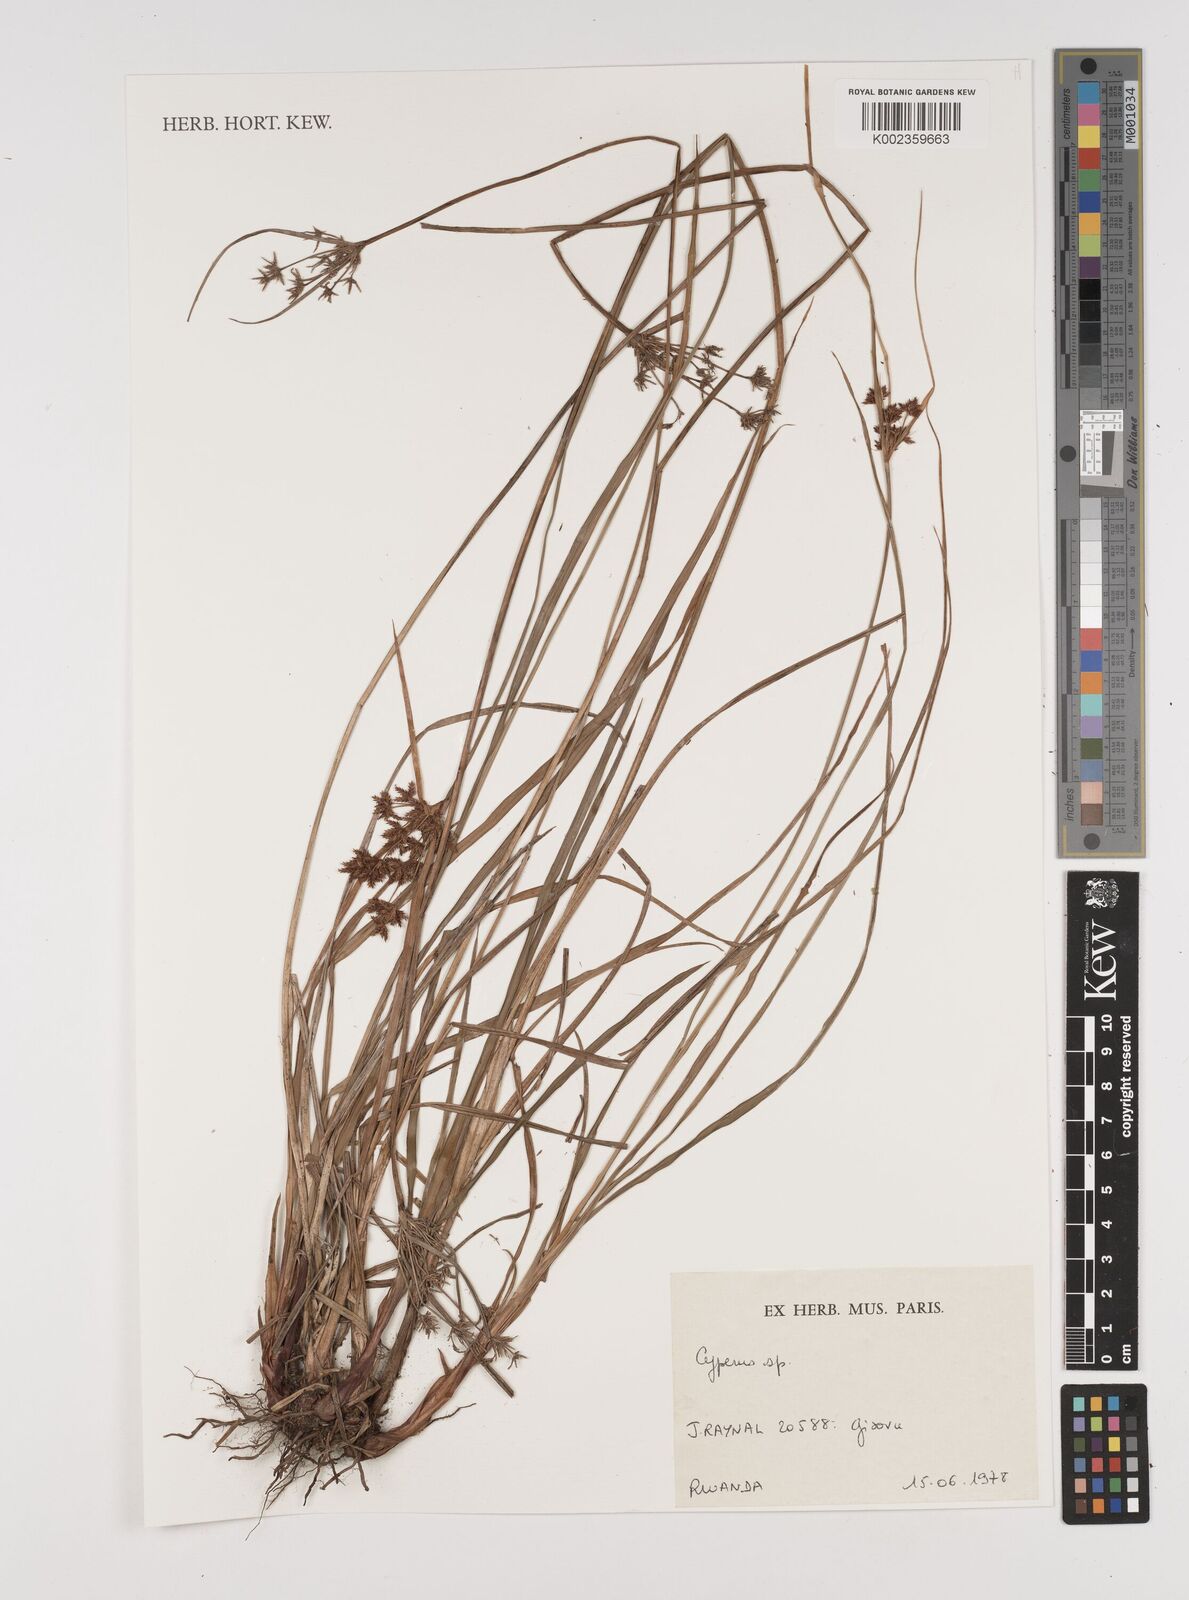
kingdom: Plantae
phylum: Tracheophyta
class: Liliopsida
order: Poales
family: Cyperaceae
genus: Cyperus
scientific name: Cyperus
